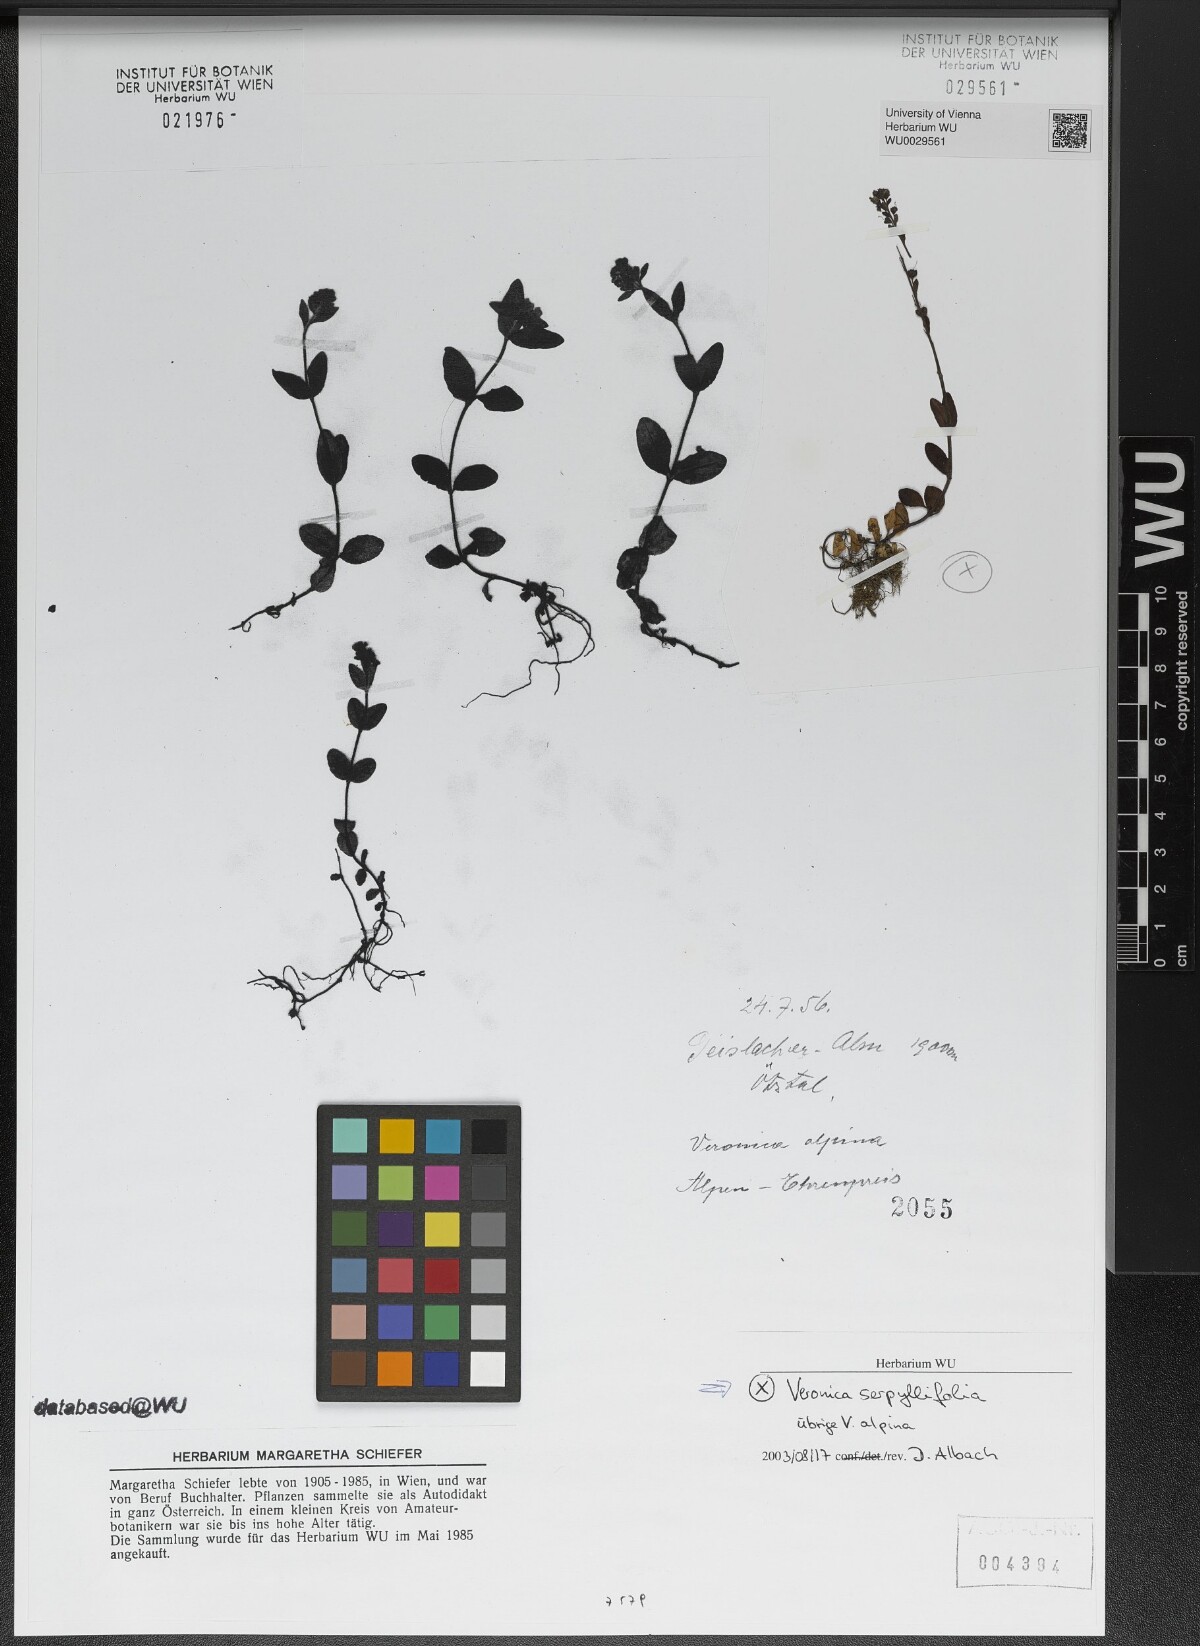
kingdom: Plantae
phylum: Tracheophyta
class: Magnoliopsida
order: Lamiales
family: Plantaginaceae
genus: Veronica
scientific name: Veronica serpyllifolia
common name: Thyme-leaved speedwell
